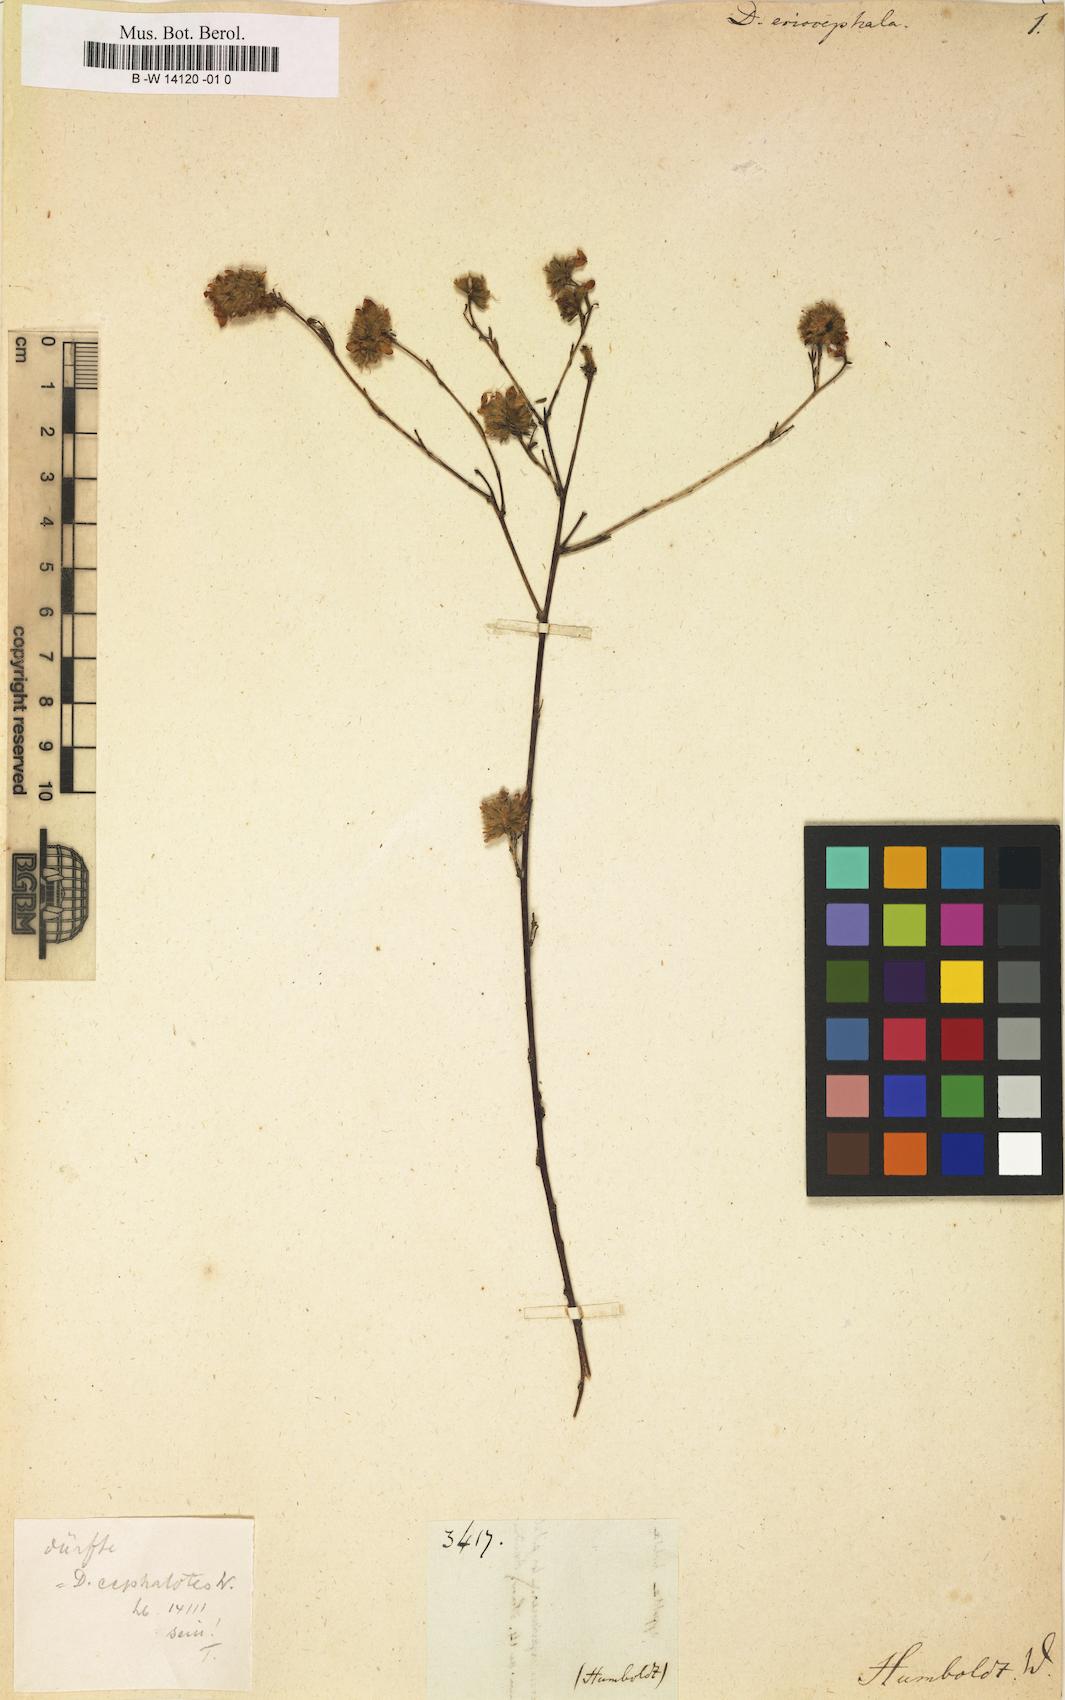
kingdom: Plantae
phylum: Tracheophyta
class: Magnoliopsida
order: Fabales
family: Fabaceae
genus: Dalea
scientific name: Dalea
